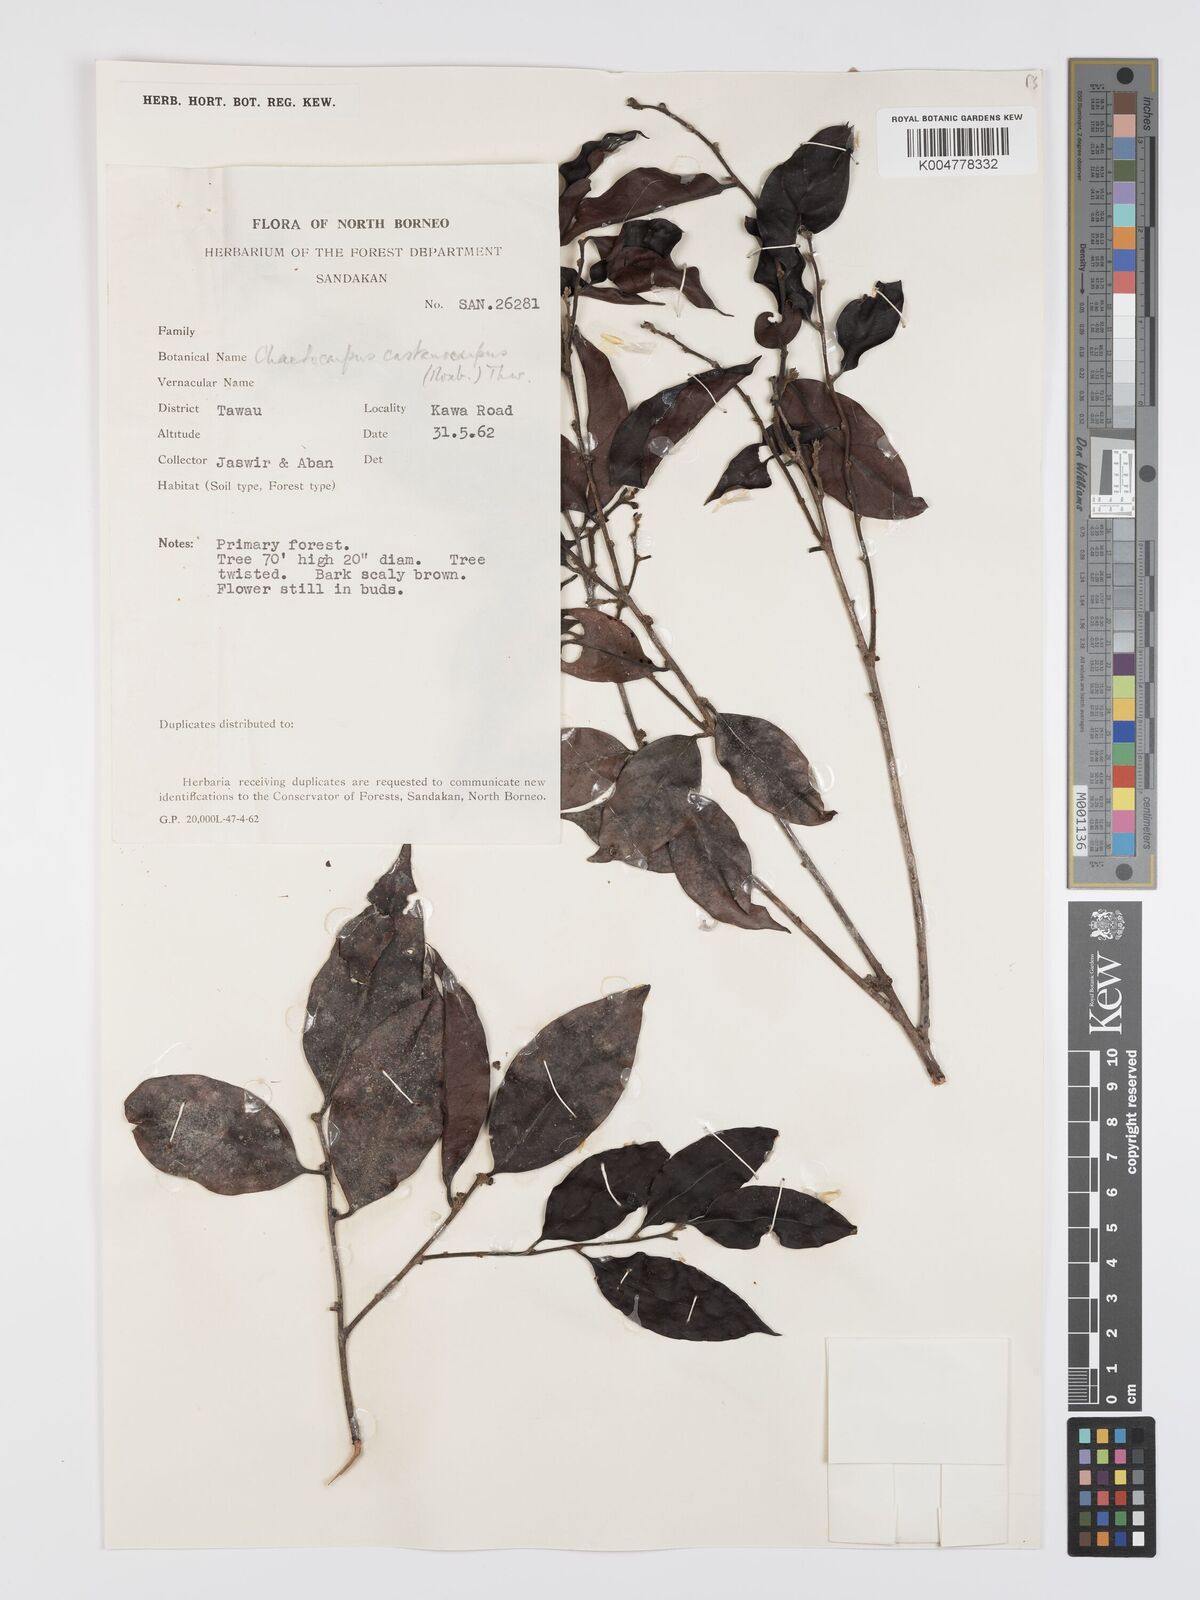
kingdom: Plantae
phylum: Tracheophyta
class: Magnoliopsida
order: Malpighiales
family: Peraceae
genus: Chaetocarpus
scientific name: Chaetocarpus castanocarpus
